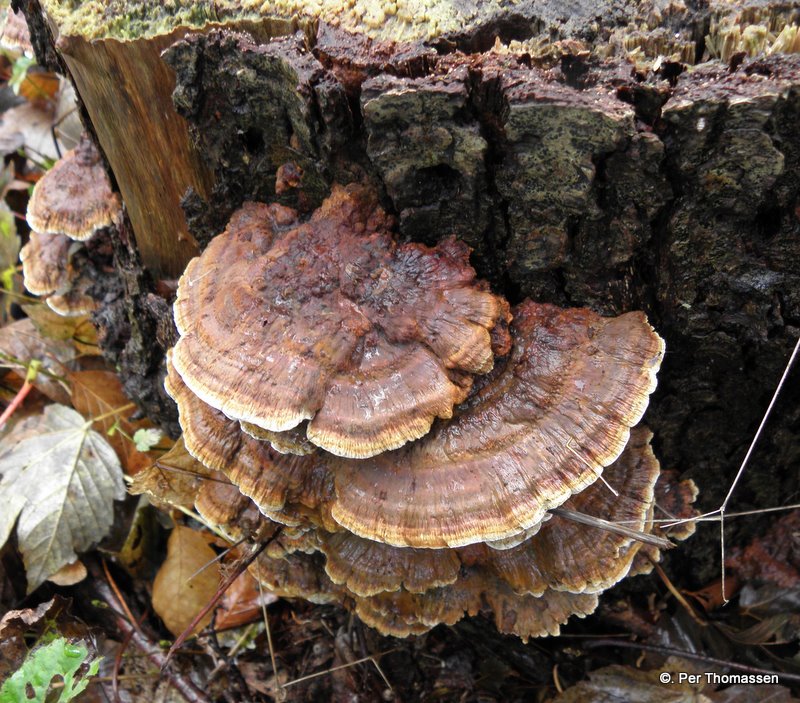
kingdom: Fungi
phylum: Basidiomycota
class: Agaricomycetes
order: Hymenochaetales
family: Hymenochaetaceae
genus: Xanthoporia
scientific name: Xanthoporia radiata
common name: elle-spejlporesvamp
